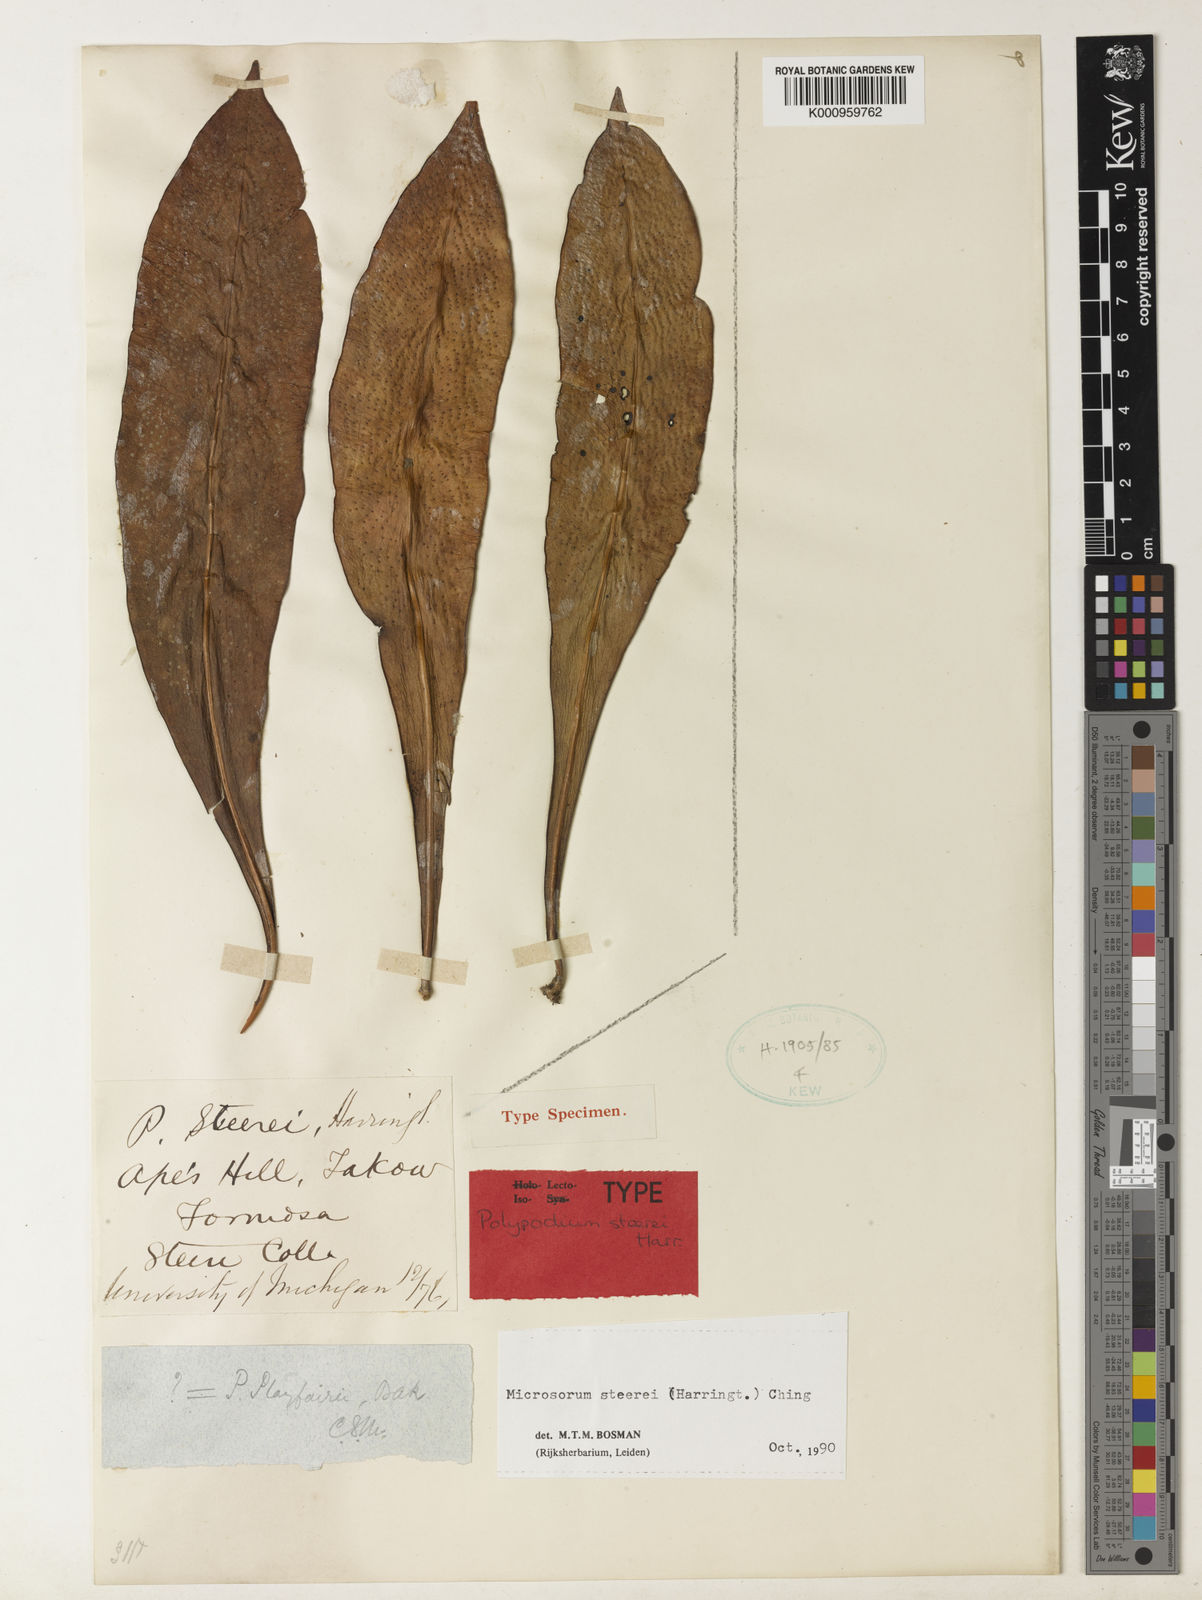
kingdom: Plantae
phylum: Tracheophyta
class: Polypodiopsida
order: Polypodiales
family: Polypodiaceae
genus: Microsorum
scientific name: Microsorum steerei
